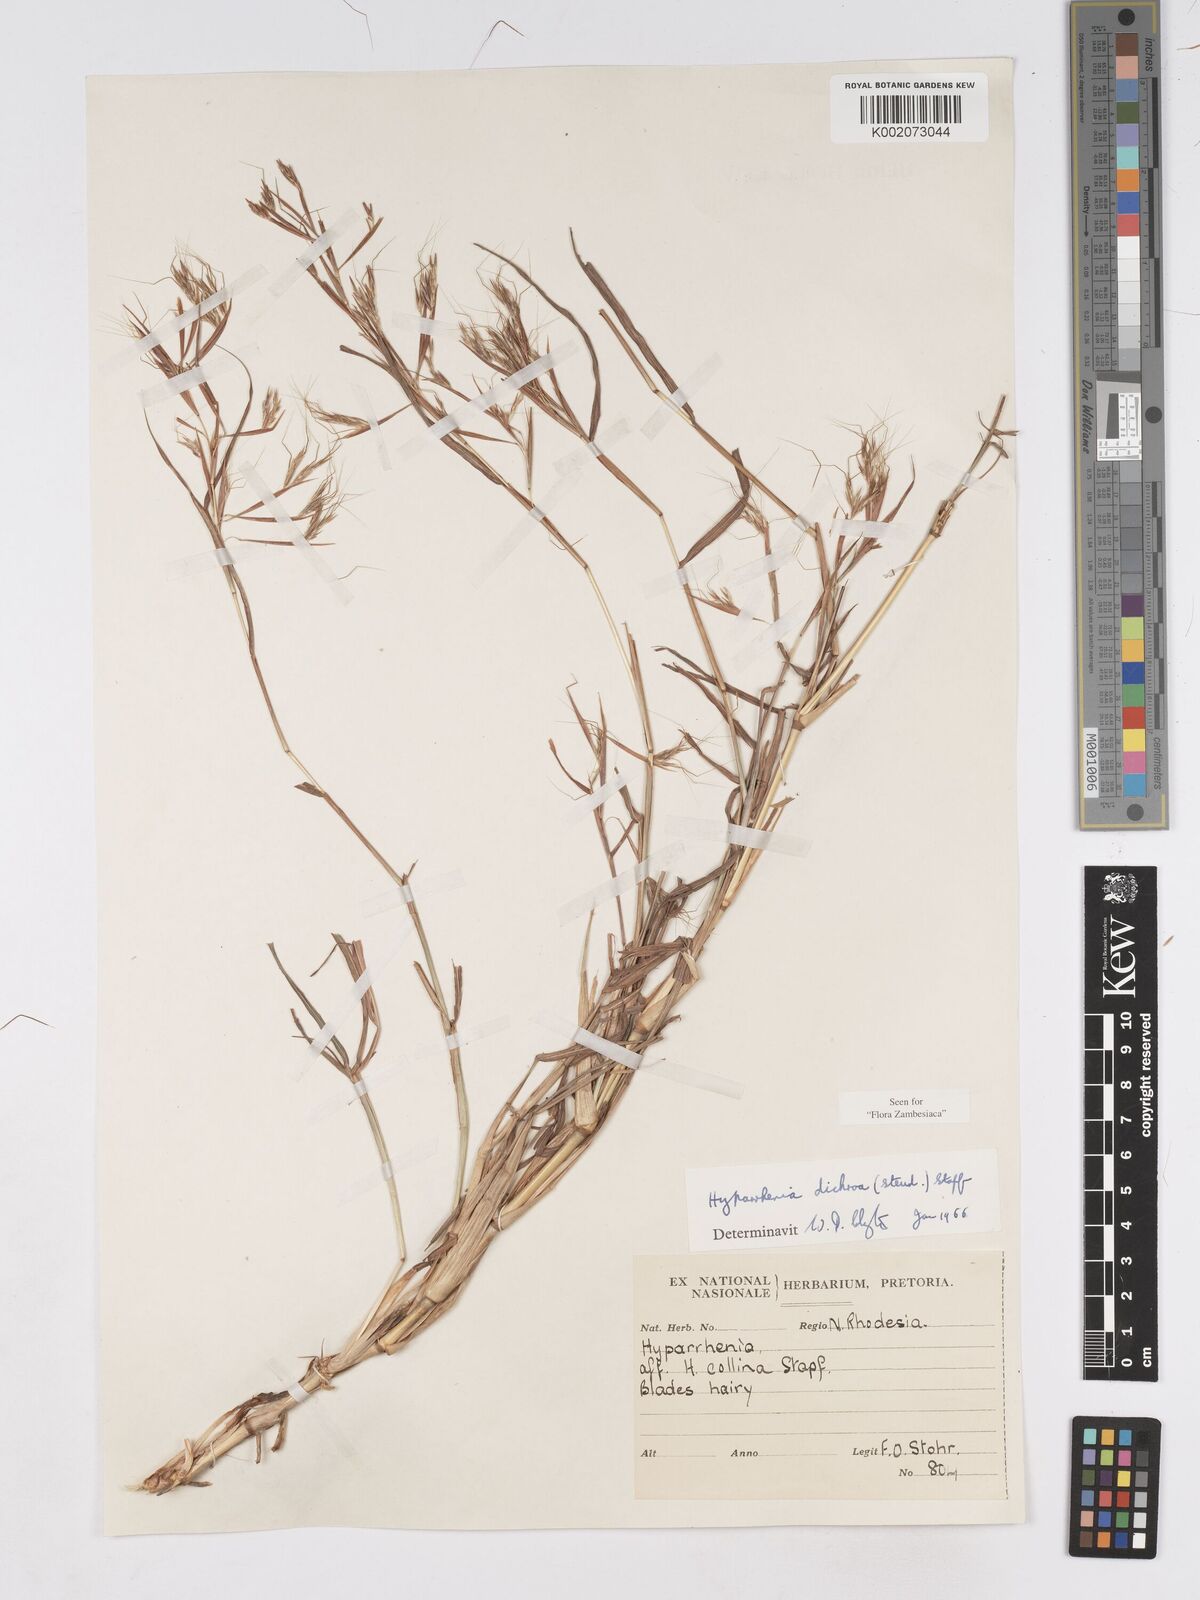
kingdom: Plantae
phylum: Tracheophyta
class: Liliopsida
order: Poales
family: Poaceae
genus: Hyparrhenia
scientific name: Hyparrhenia dichroa
